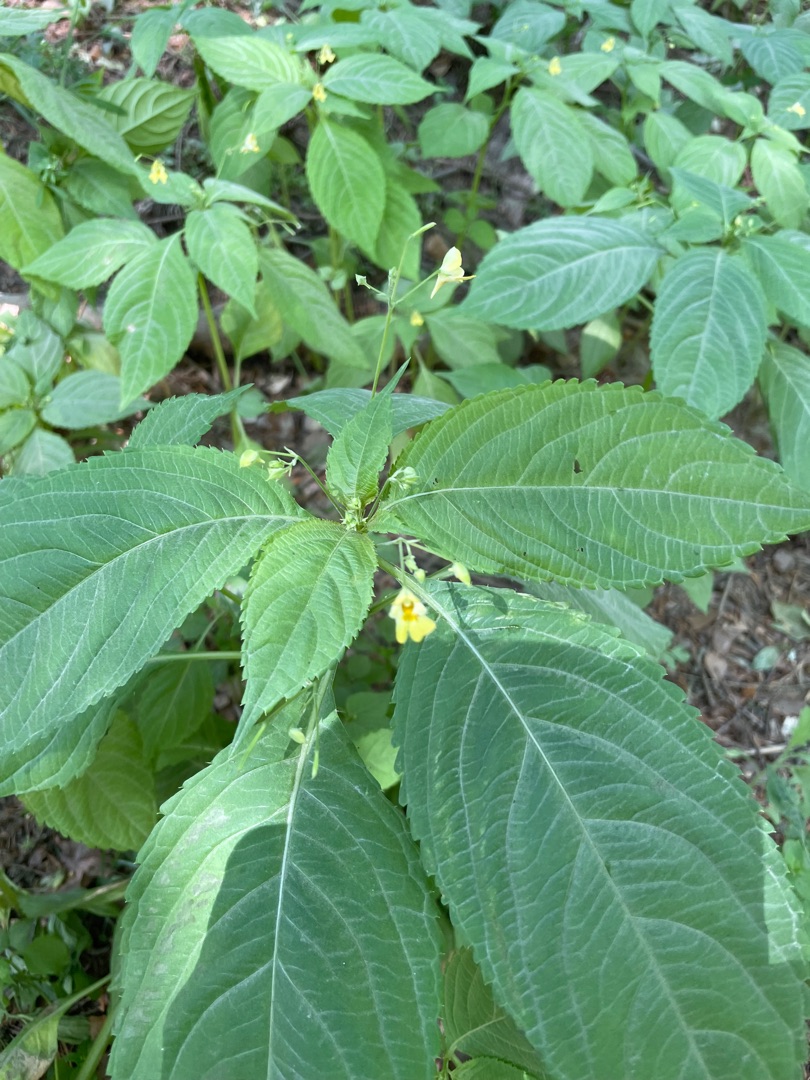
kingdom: Plantae
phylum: Tracheophyta
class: Magnoliopsida
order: Ericales
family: Balsaminaceae
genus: Impatiens
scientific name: Impatiens parviflora
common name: Småblomstret balsamin
